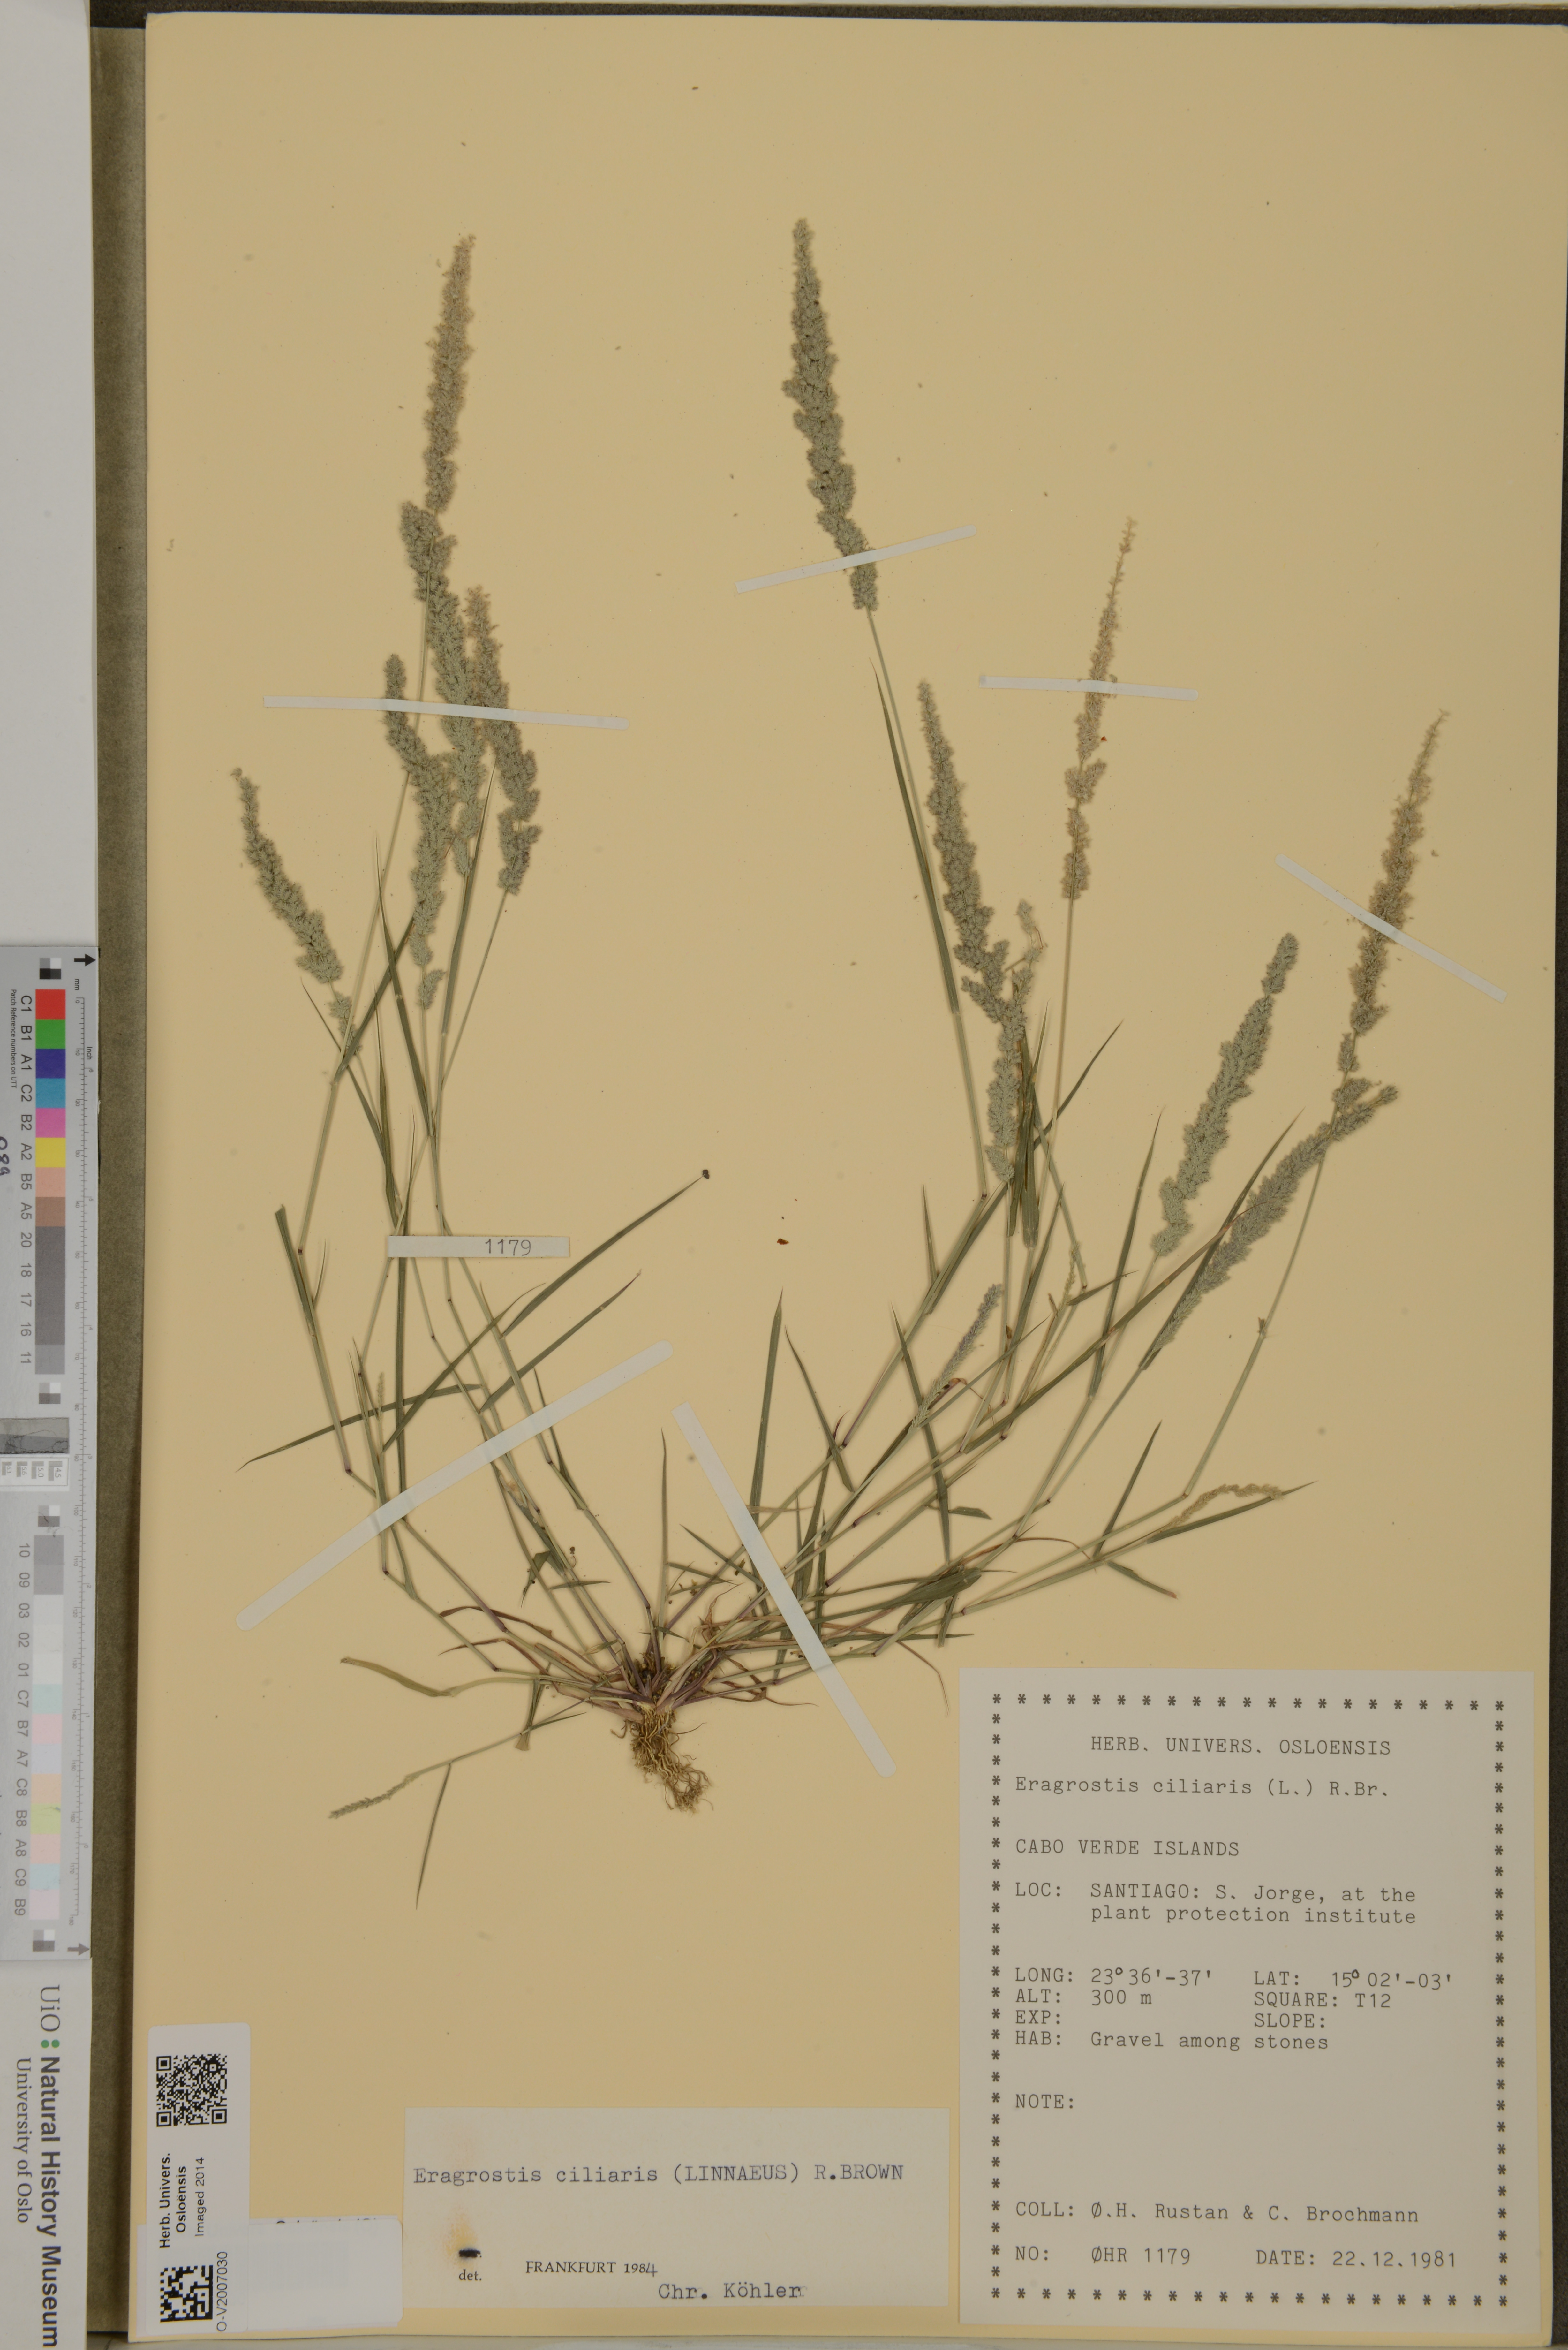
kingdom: Plantae
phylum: Tracheophyta
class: Liliopsida
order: Poales
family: Poaceae
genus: Eragrostis
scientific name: Eragrostis ciliaris
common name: Gophertail lovegrass
